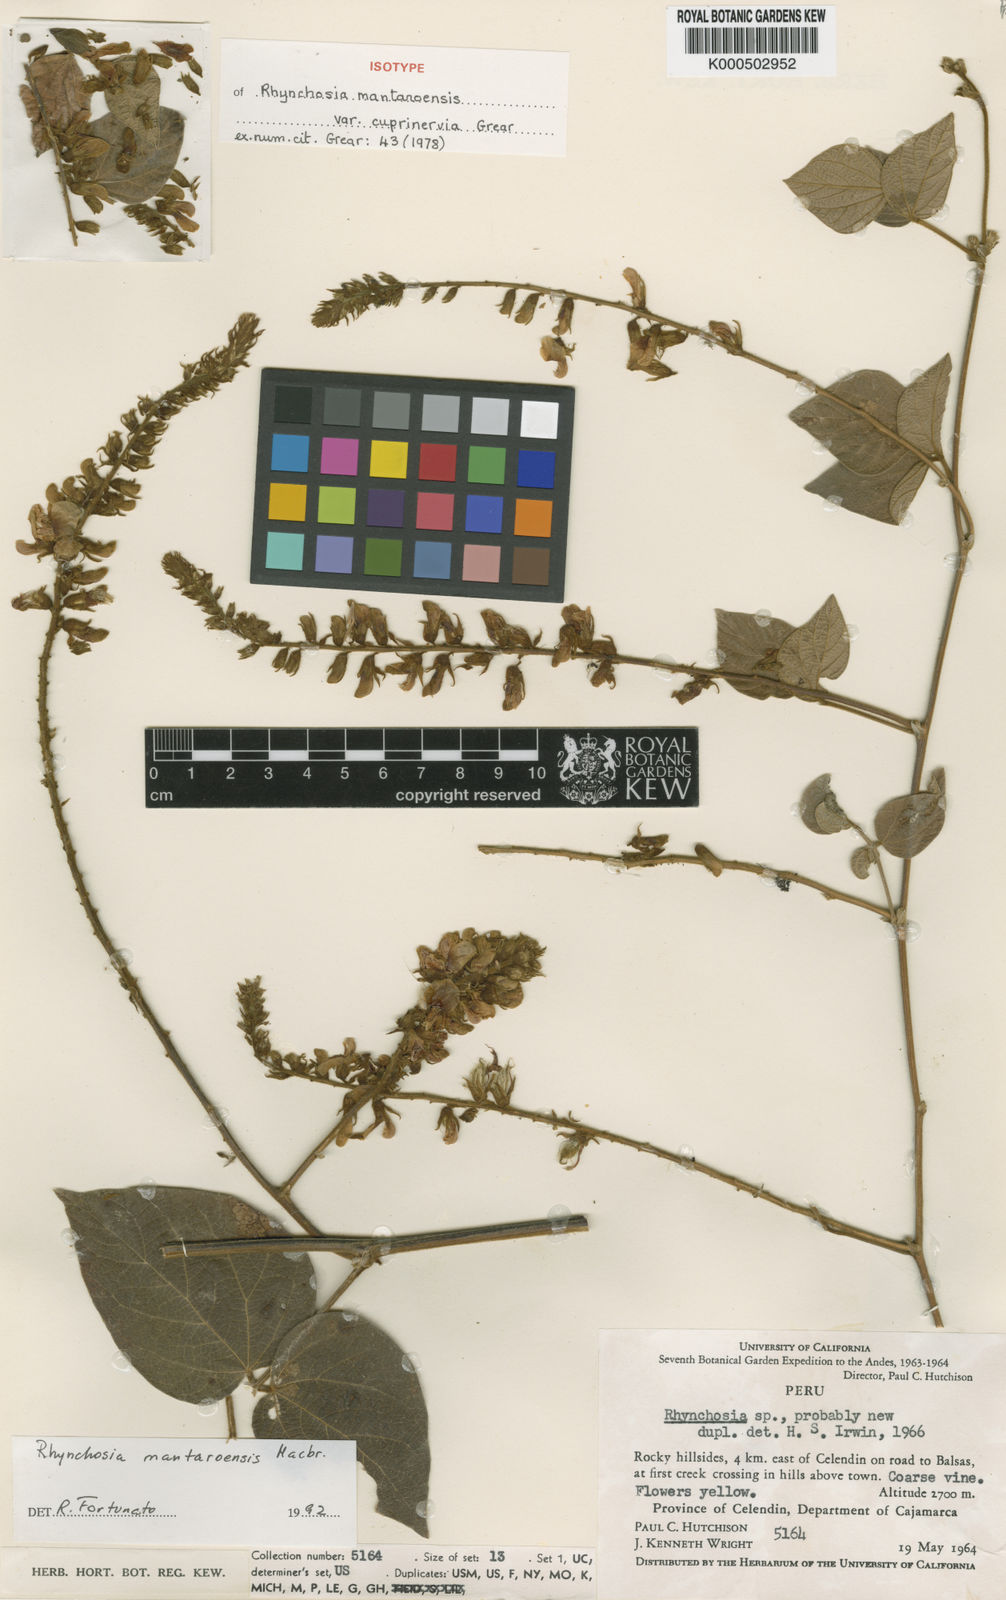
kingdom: Plantae
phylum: Tracheophyta
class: Magnoliopsida
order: Fabales
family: Fabaceae
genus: Rhynchosia
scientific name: Rhynchosia mantaroensis
